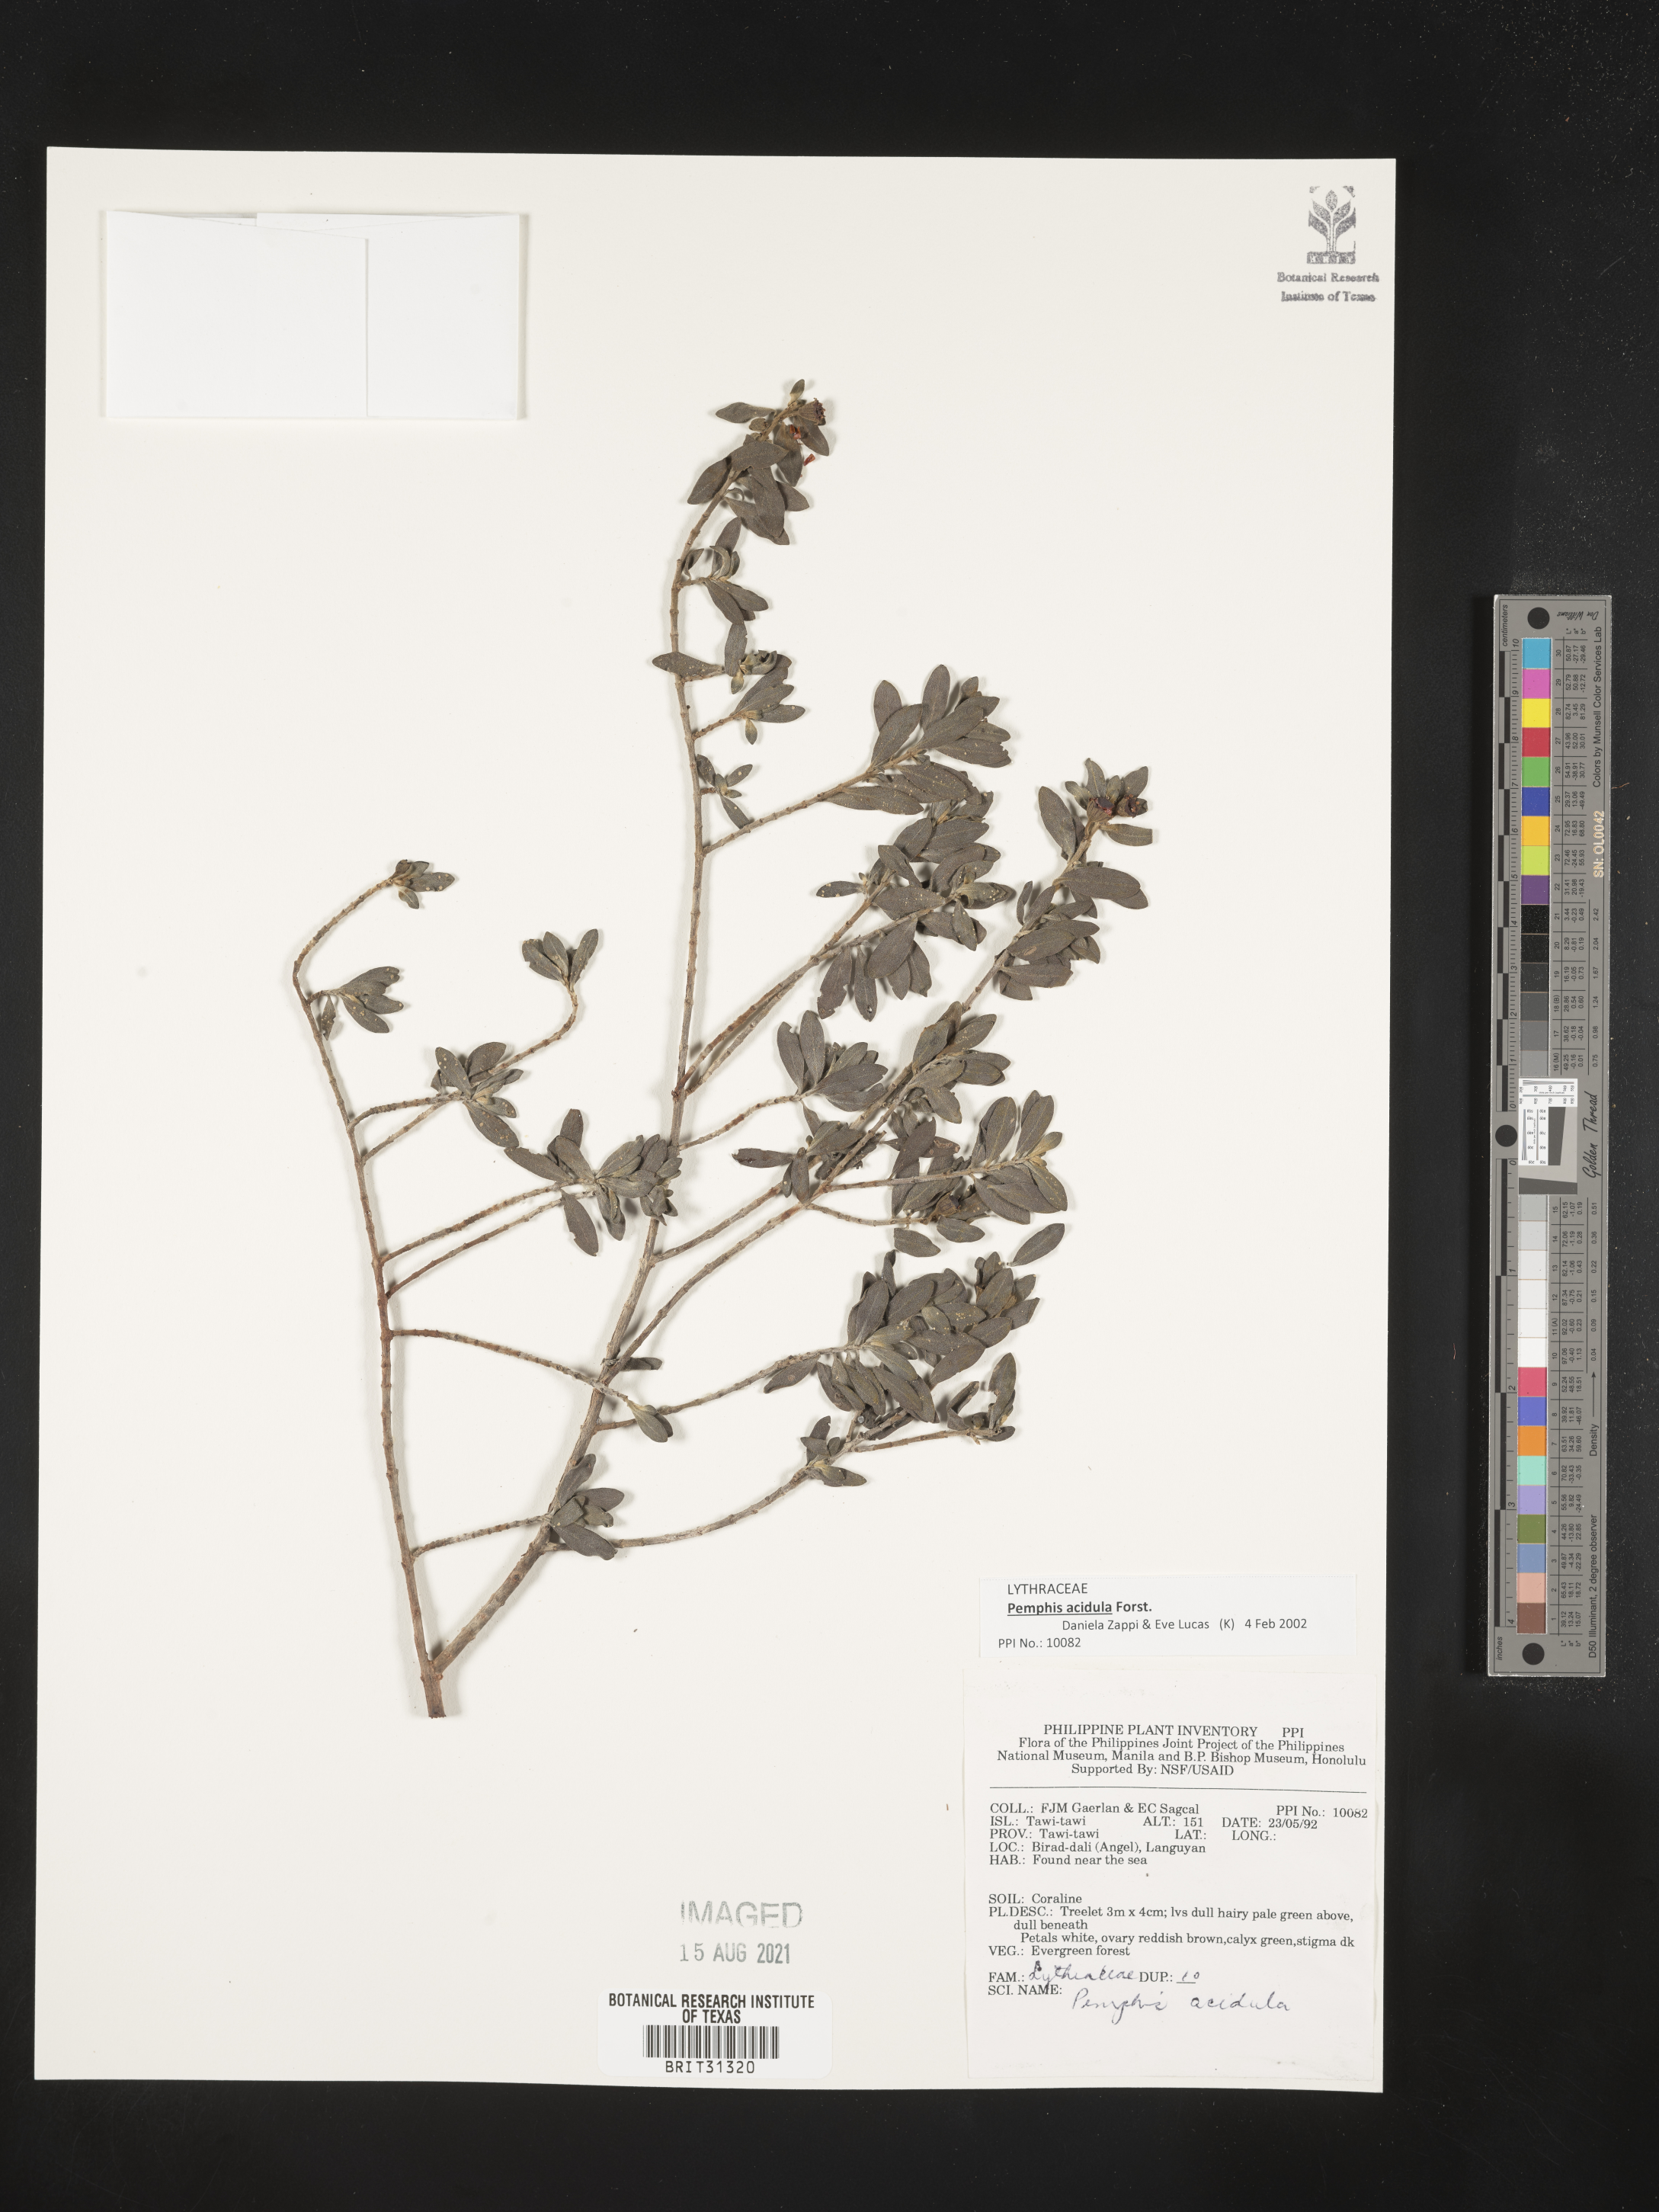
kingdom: Plantae
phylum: Tracheophyta
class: Magnoliopsida
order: Myrtales
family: Lythraceae
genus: Pemphis
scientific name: Pemphis acidula
